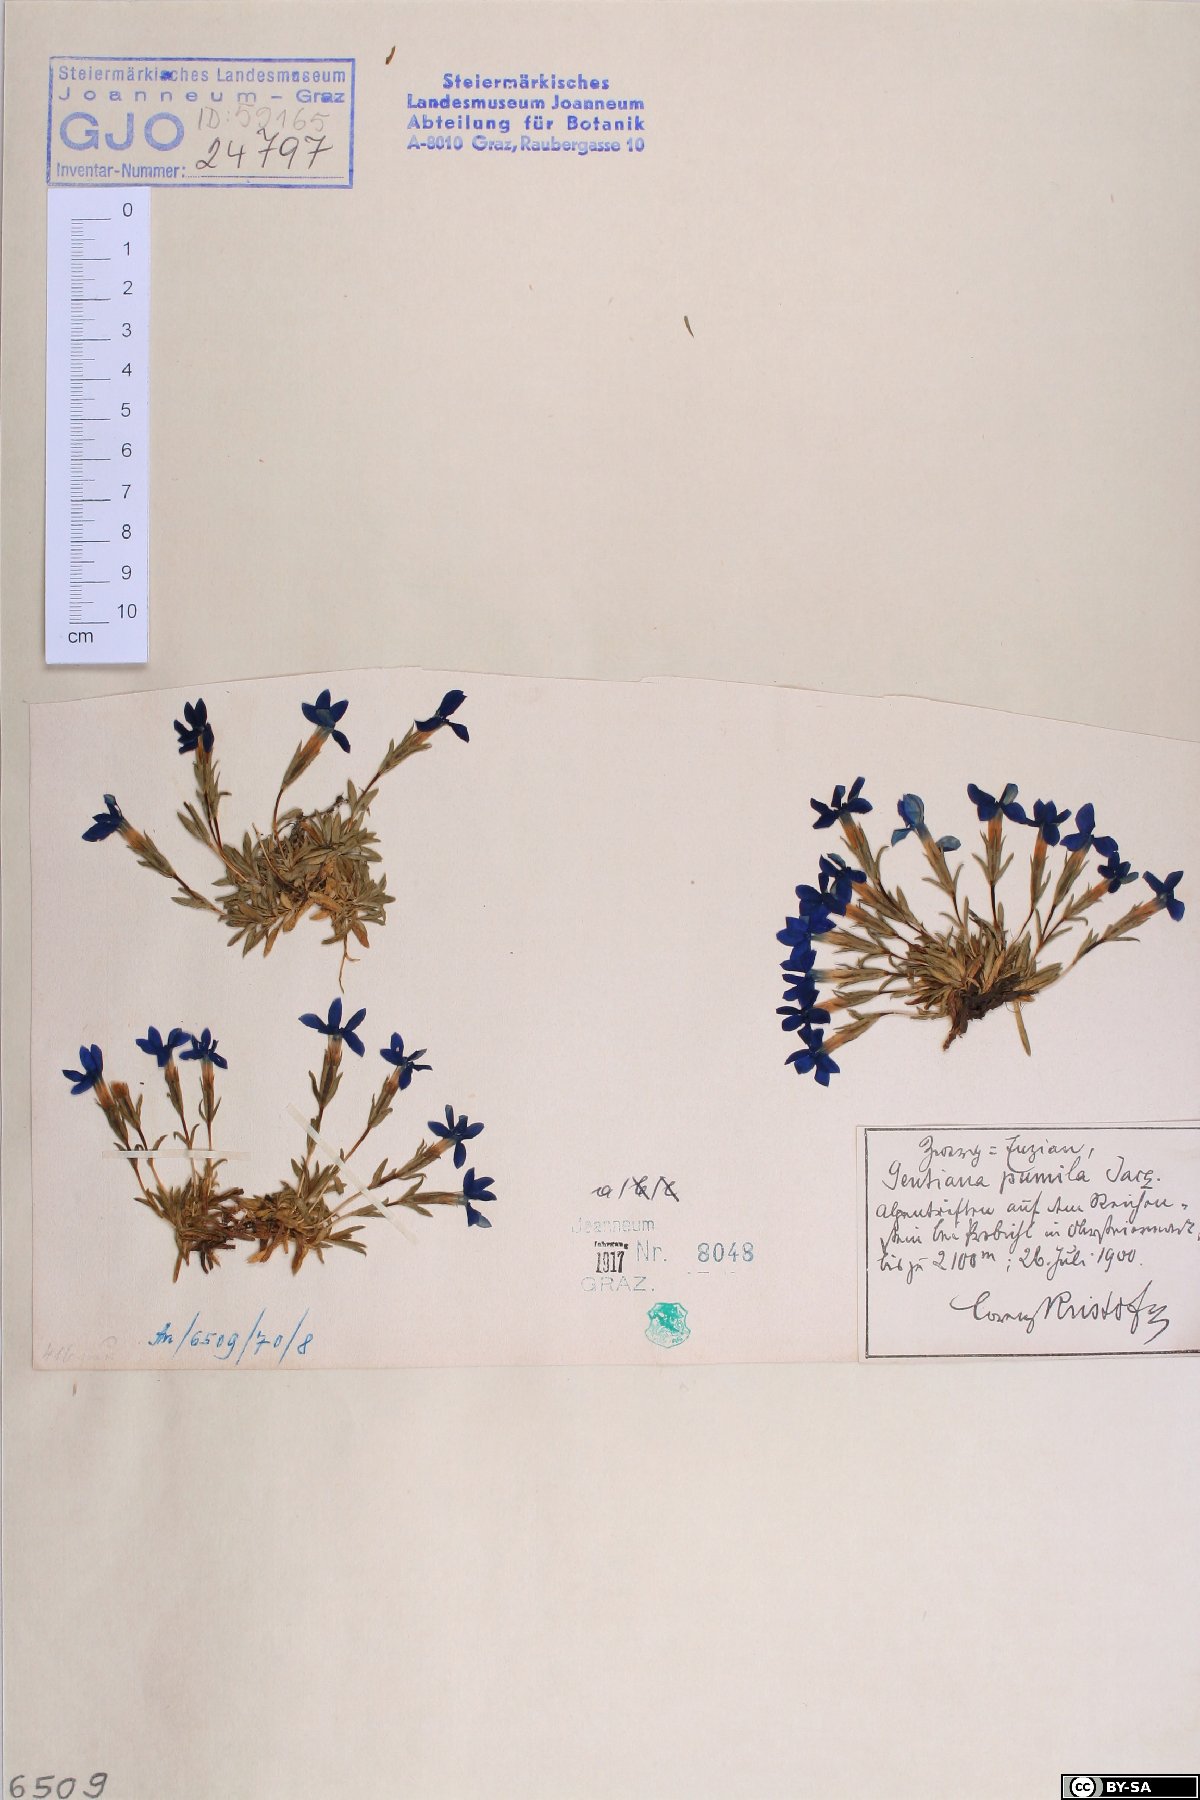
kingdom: Plantae
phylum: Tracheophyta
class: Magnoliopsida
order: Gentianales
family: Gentianaceae
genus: Gentiana
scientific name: Gentiana pumila
